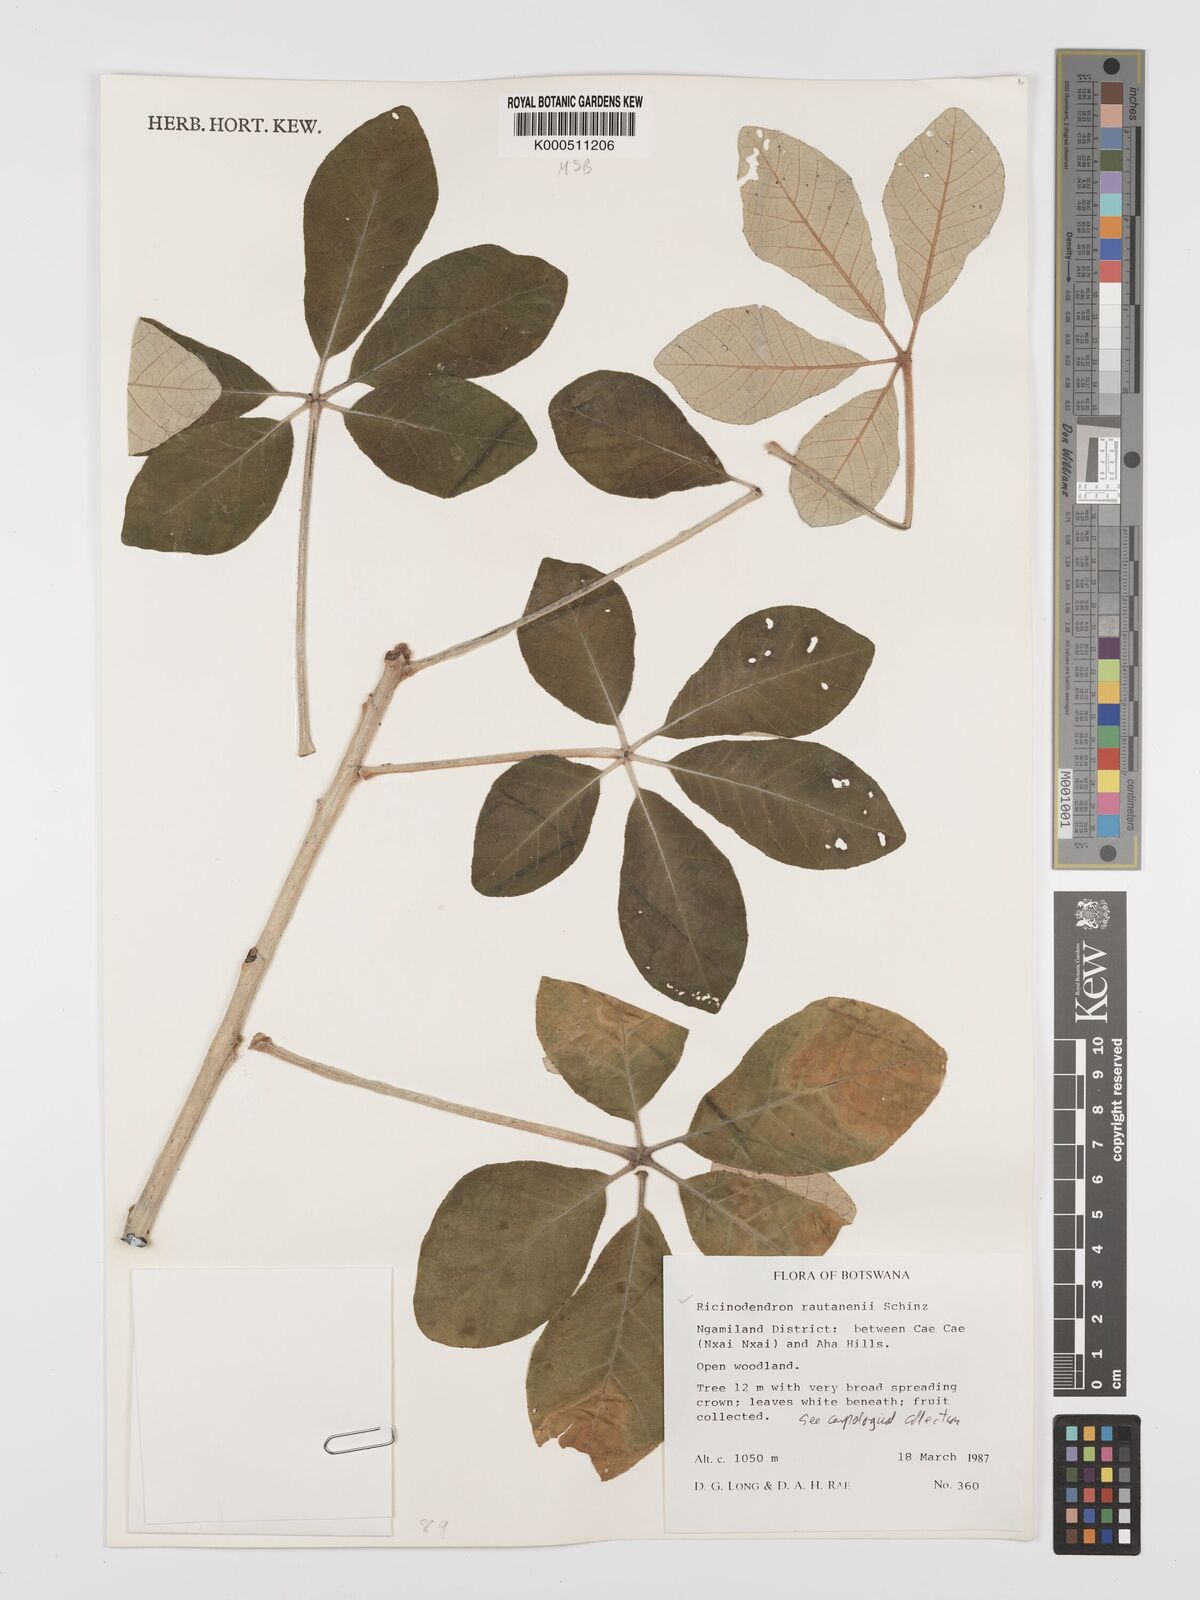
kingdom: Plantae
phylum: Tracheophyta
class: Magnoliopsida
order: Malpighiales
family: Euphorbiaceae
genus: Schinziophyton
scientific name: Schinziophyton rautanenii
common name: Manketti
